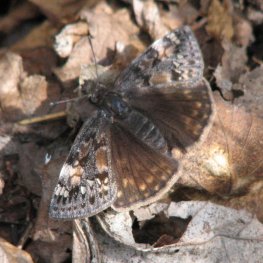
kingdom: Animalia
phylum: Arthropoda
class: Insecta
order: Lepidoptera
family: Hesperiidae
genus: Gesta
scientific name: Gesta
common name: Juvenal's Duskywing
